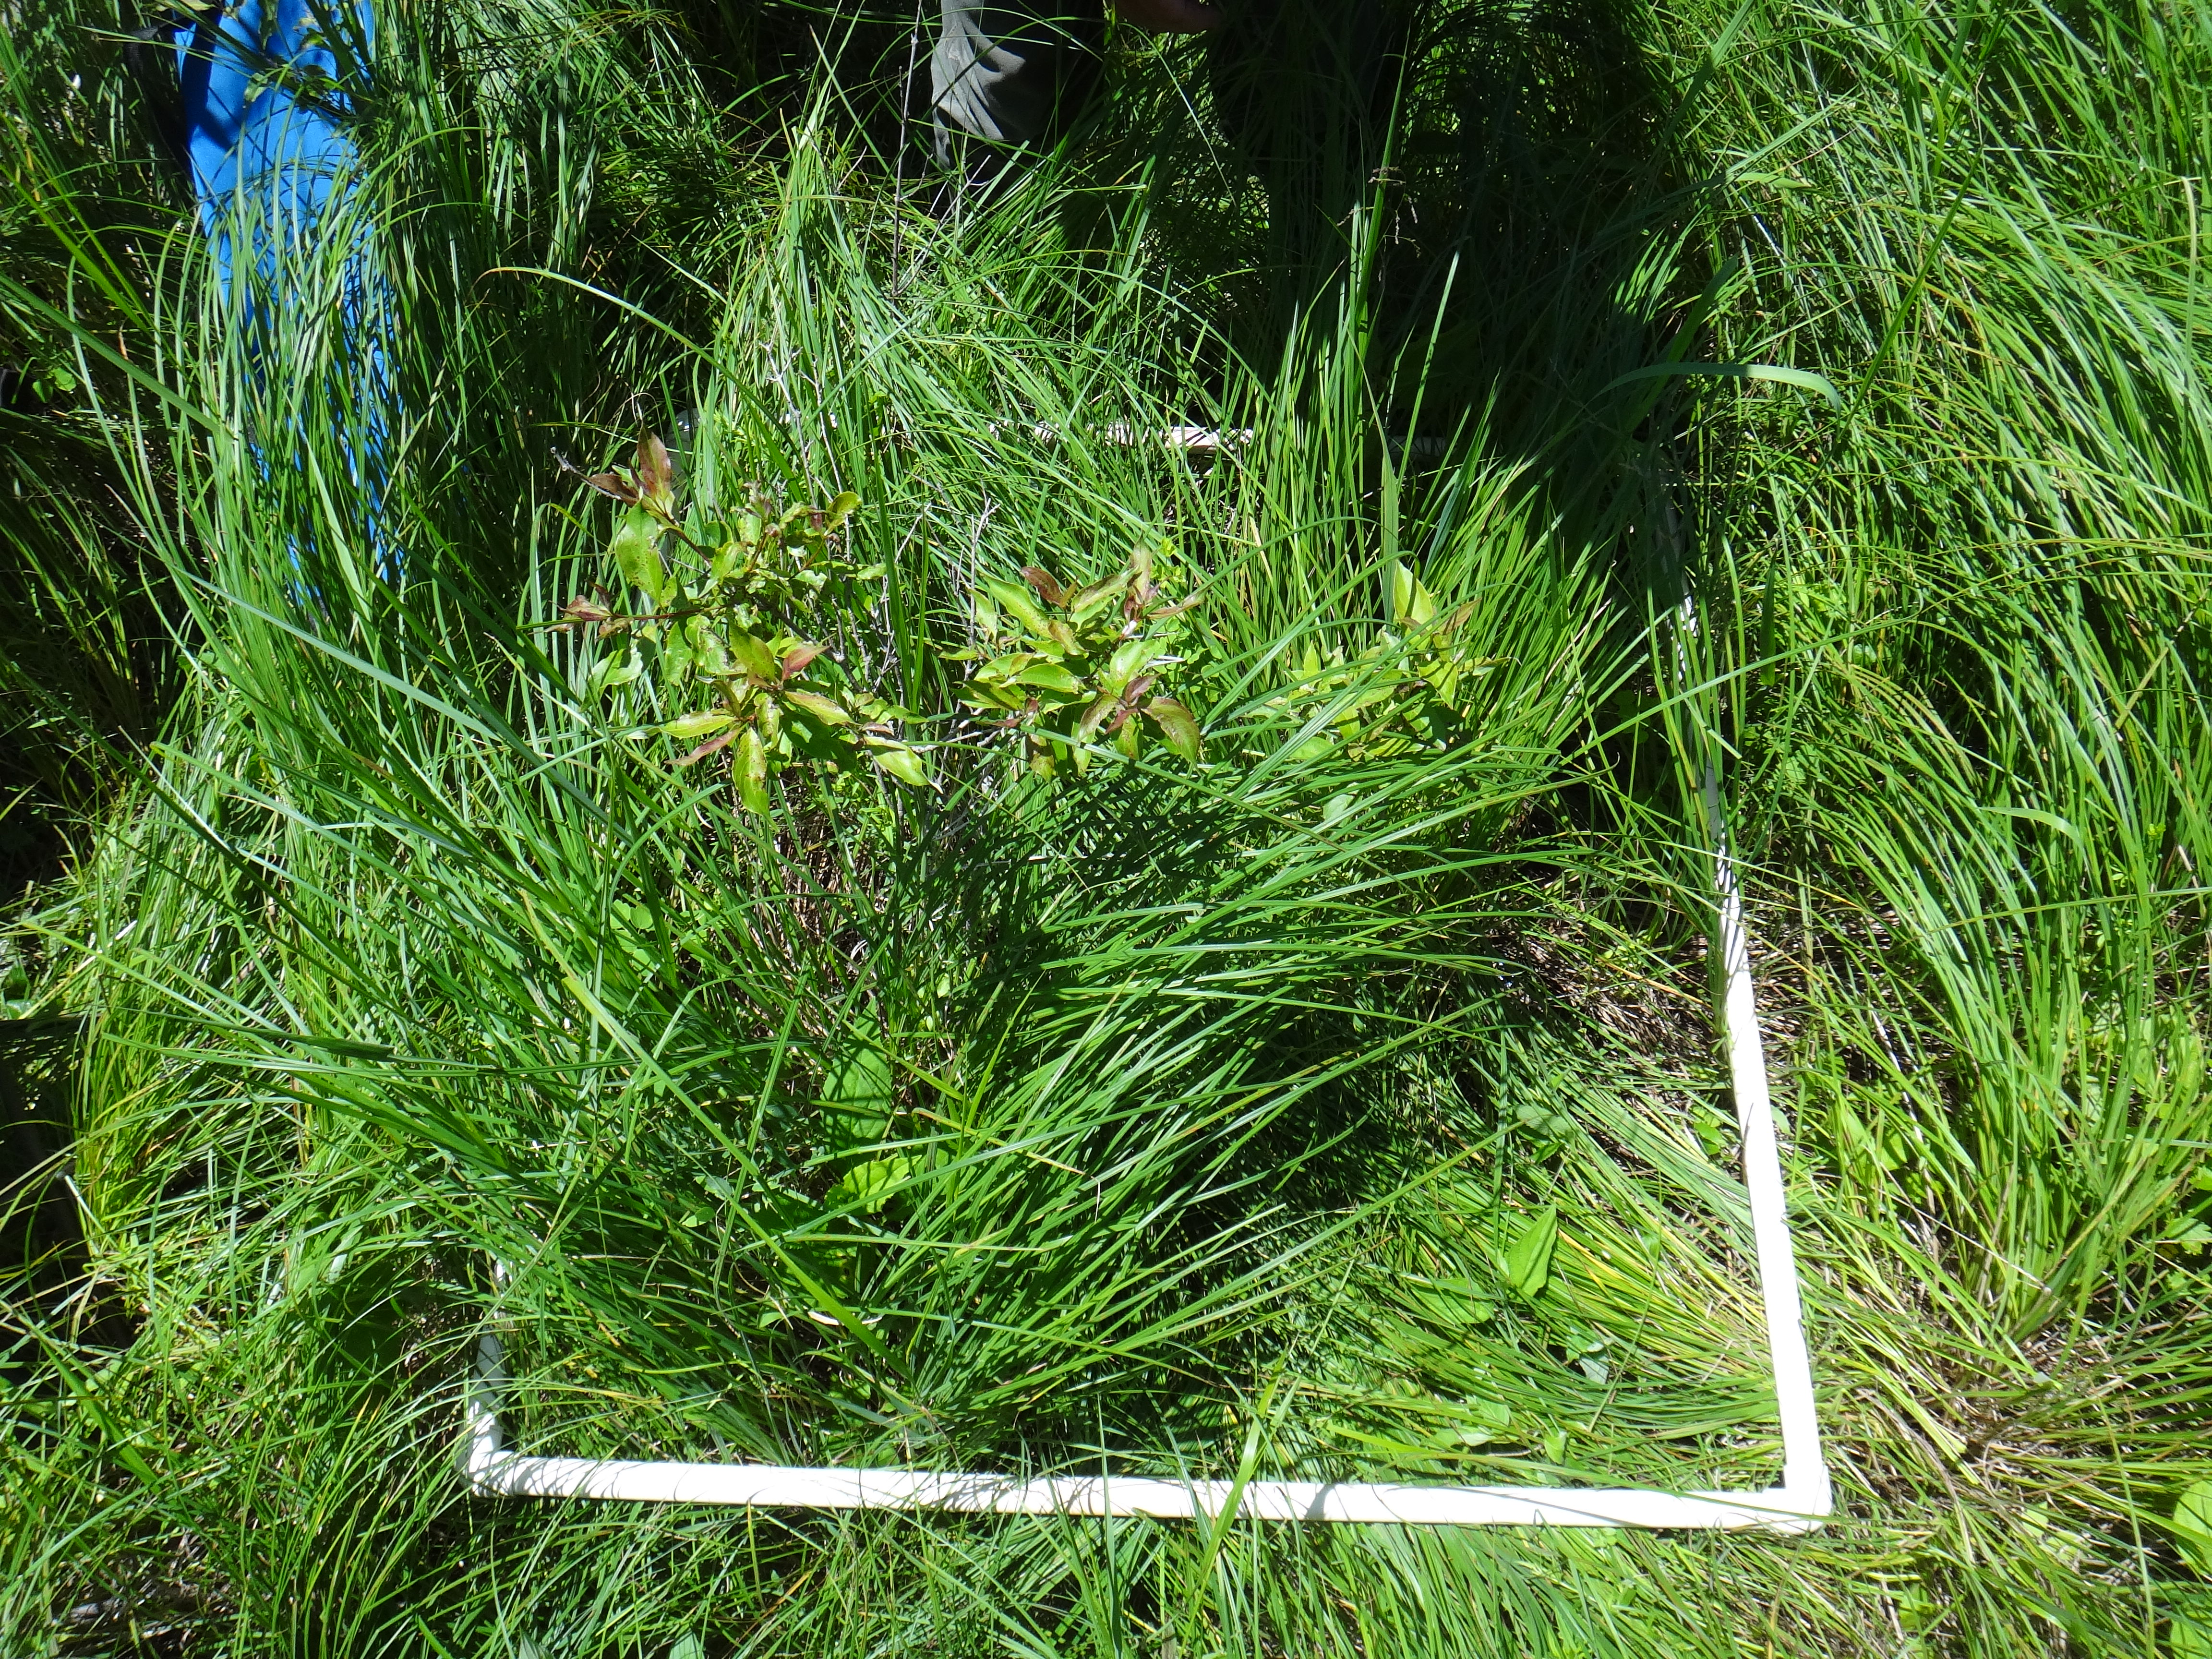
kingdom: Plantae
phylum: Tracheophyta
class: Magnoliopsida
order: Asterales
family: Asteraceae
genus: Symphyotrichum
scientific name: Symphyotrichum lanceolatum
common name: Panicled aster
